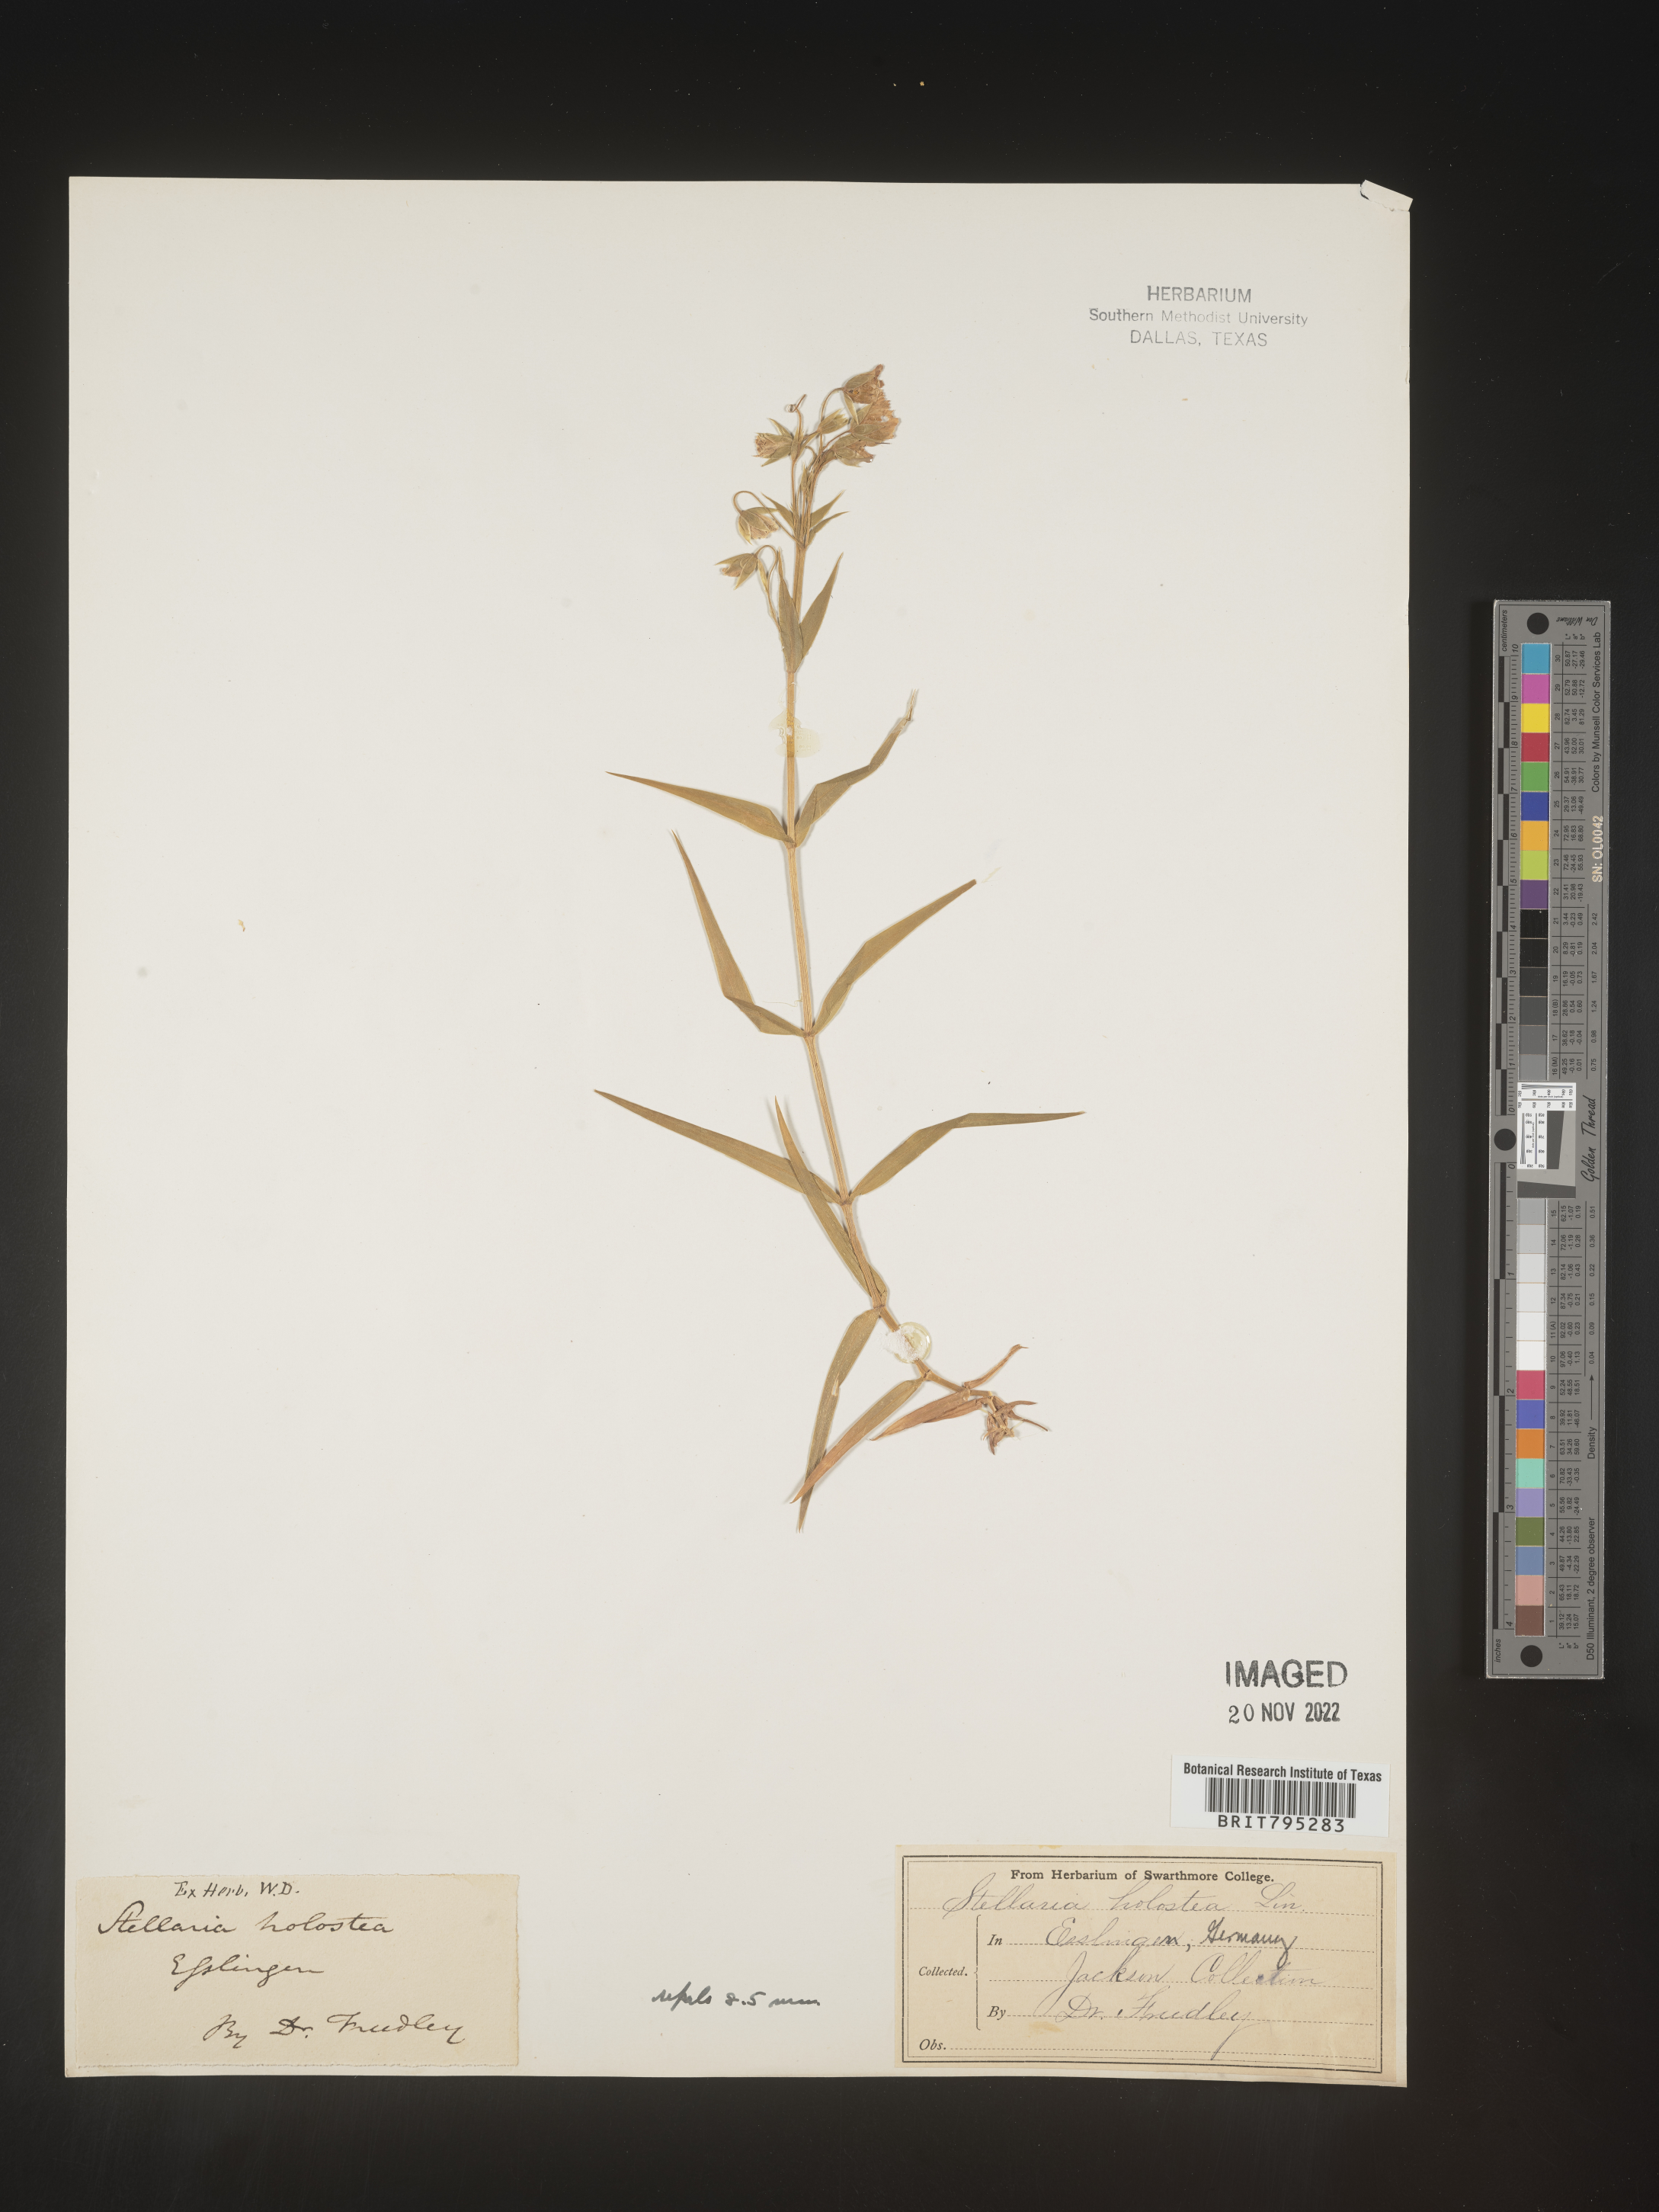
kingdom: Plantae
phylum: Tracheophyta
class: Magnoliopsida
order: Caryophyllales
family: Caryophyllaceae
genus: Stellaria
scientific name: Stellaria
